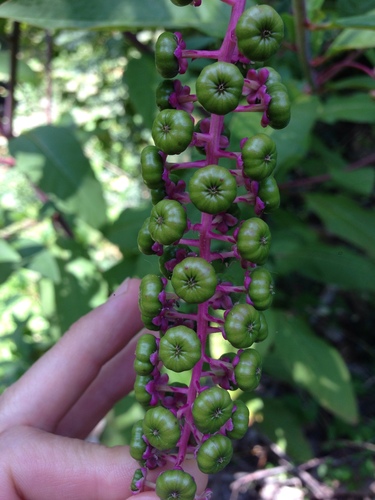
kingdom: Plantae
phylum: Tracheophyta
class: Magnoliopsida
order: Caryophyllales
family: Phytolaccaceae
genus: Phytolacca
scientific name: Phytolacca americana
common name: American pokeweed
